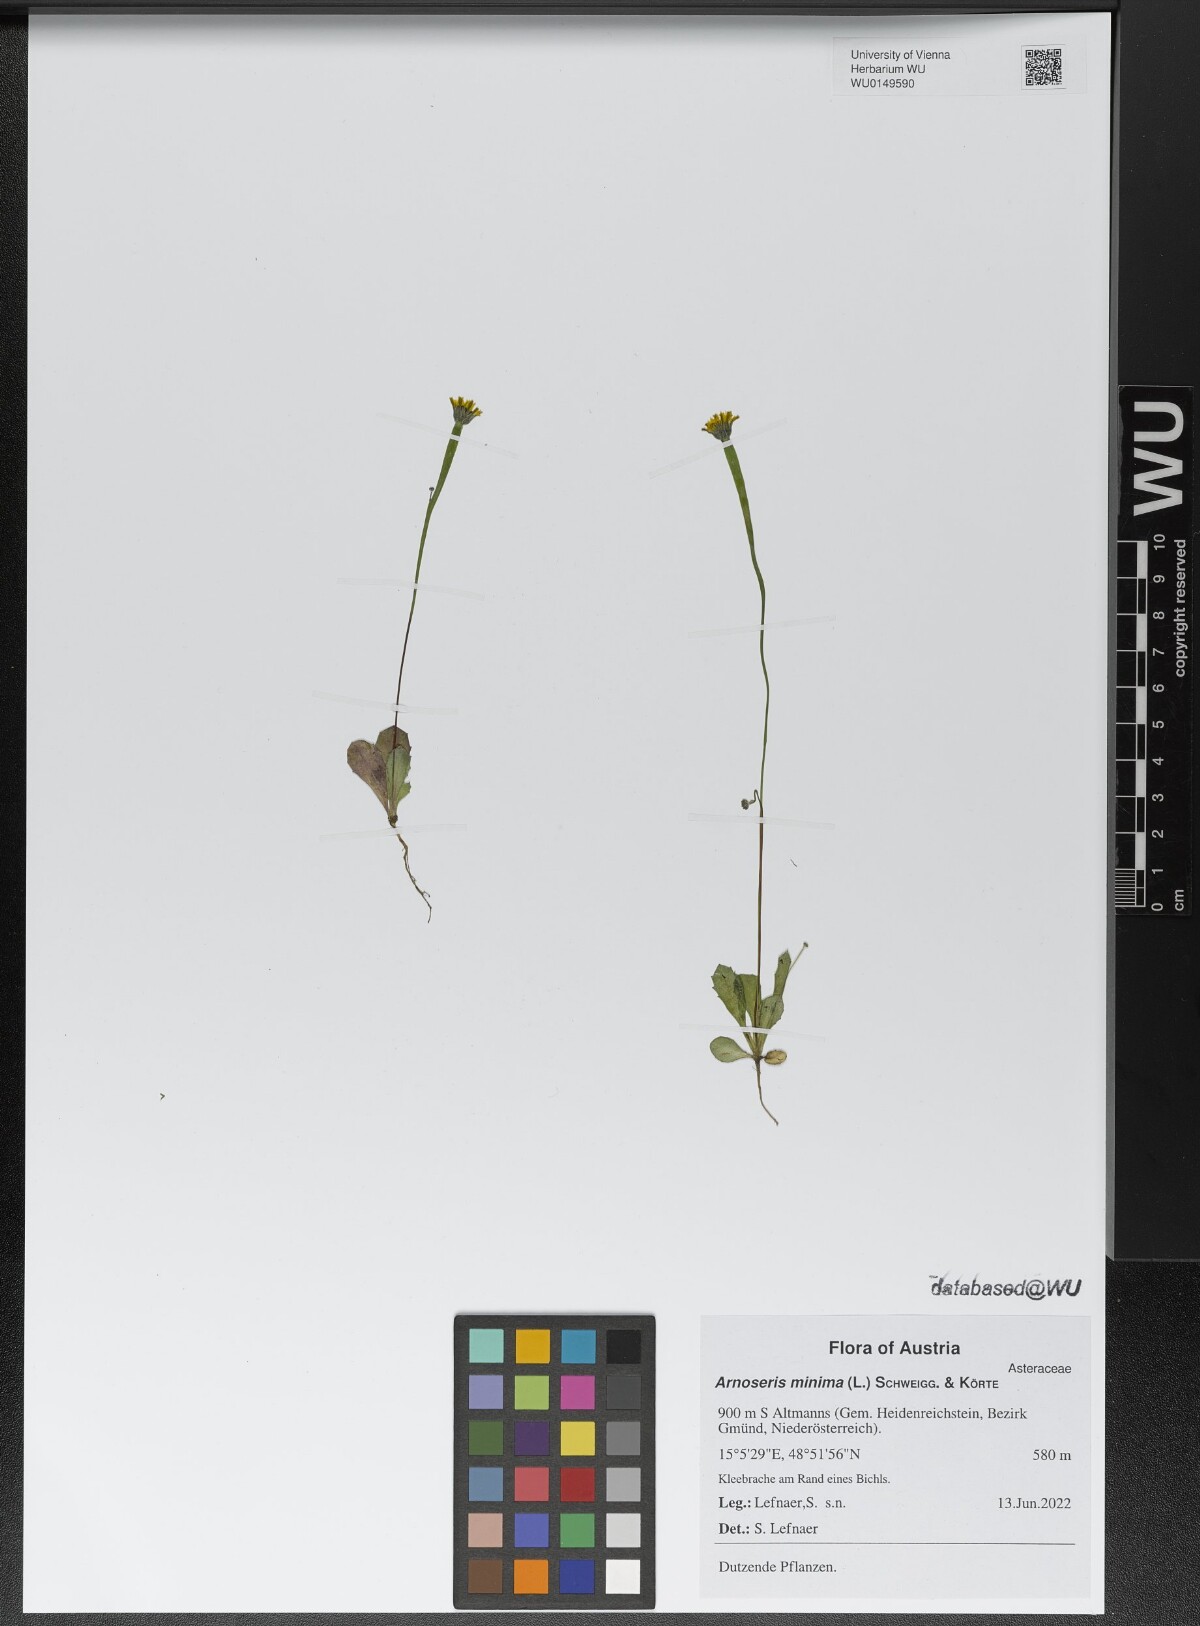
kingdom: Plantae
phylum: Tracheophyta
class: Magnoliopsida
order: Asterales
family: Asteraceae
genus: Arnoseris
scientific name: Arnoseris minima
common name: Lamb's succory
